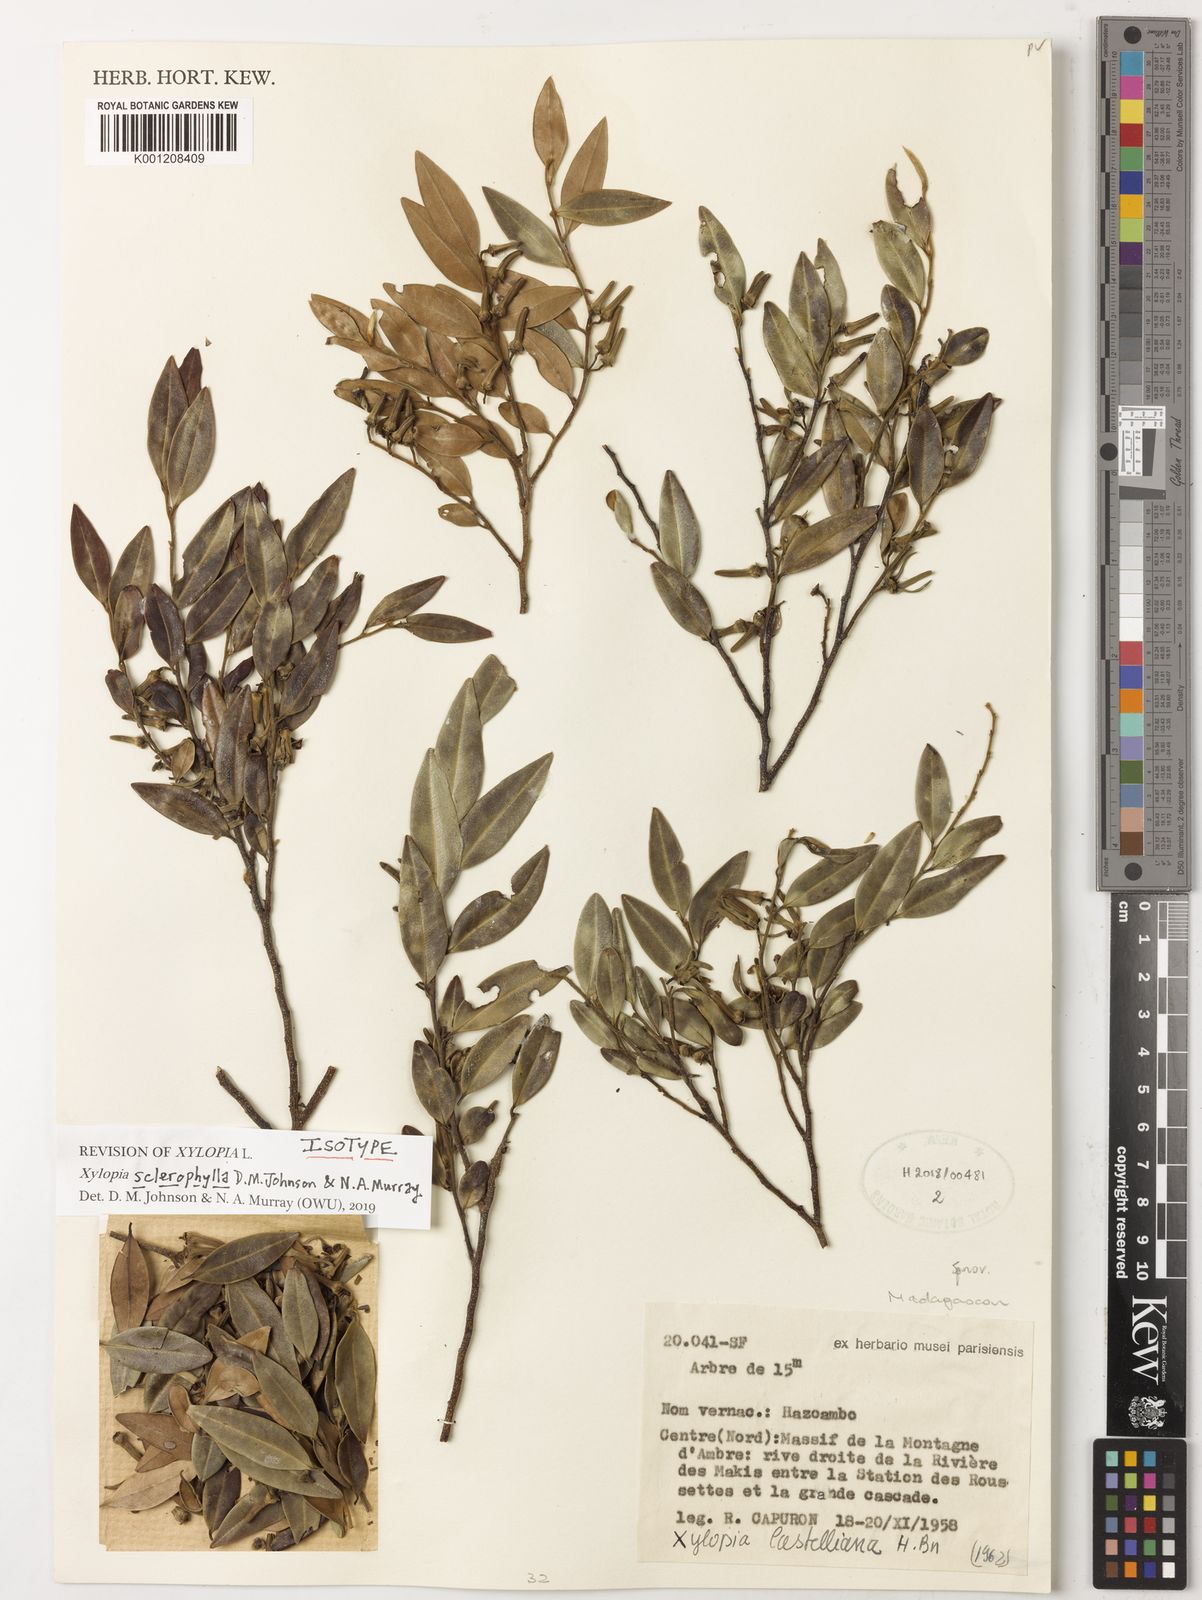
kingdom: Plantae
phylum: Tracheophyta
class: Magnoliopsida
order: Magnoliales
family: Annonaceae
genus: Xylopia
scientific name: Xylopia
